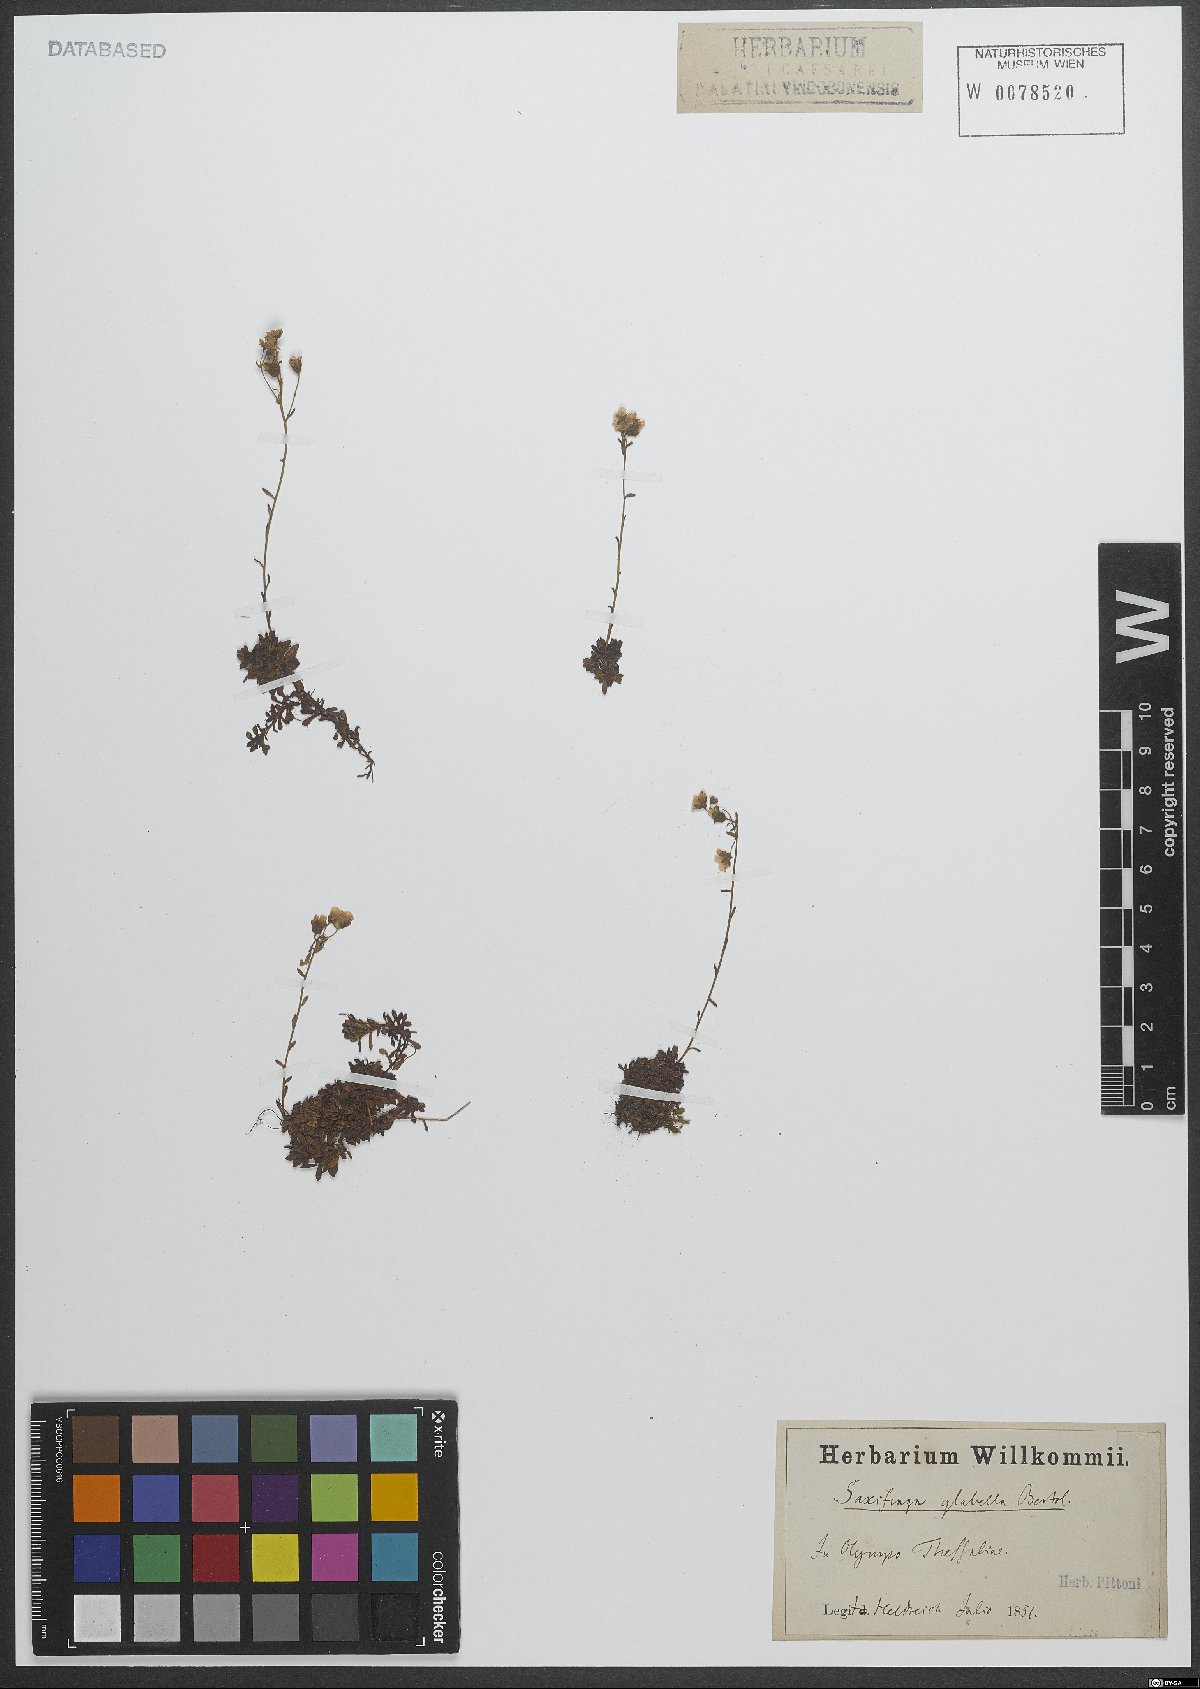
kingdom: Plantae
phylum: Tracheophyta
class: Magnoliopsida
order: Saxifragales
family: Saxifragaceae
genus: Saxifraga
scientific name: Saxifraga glabella
